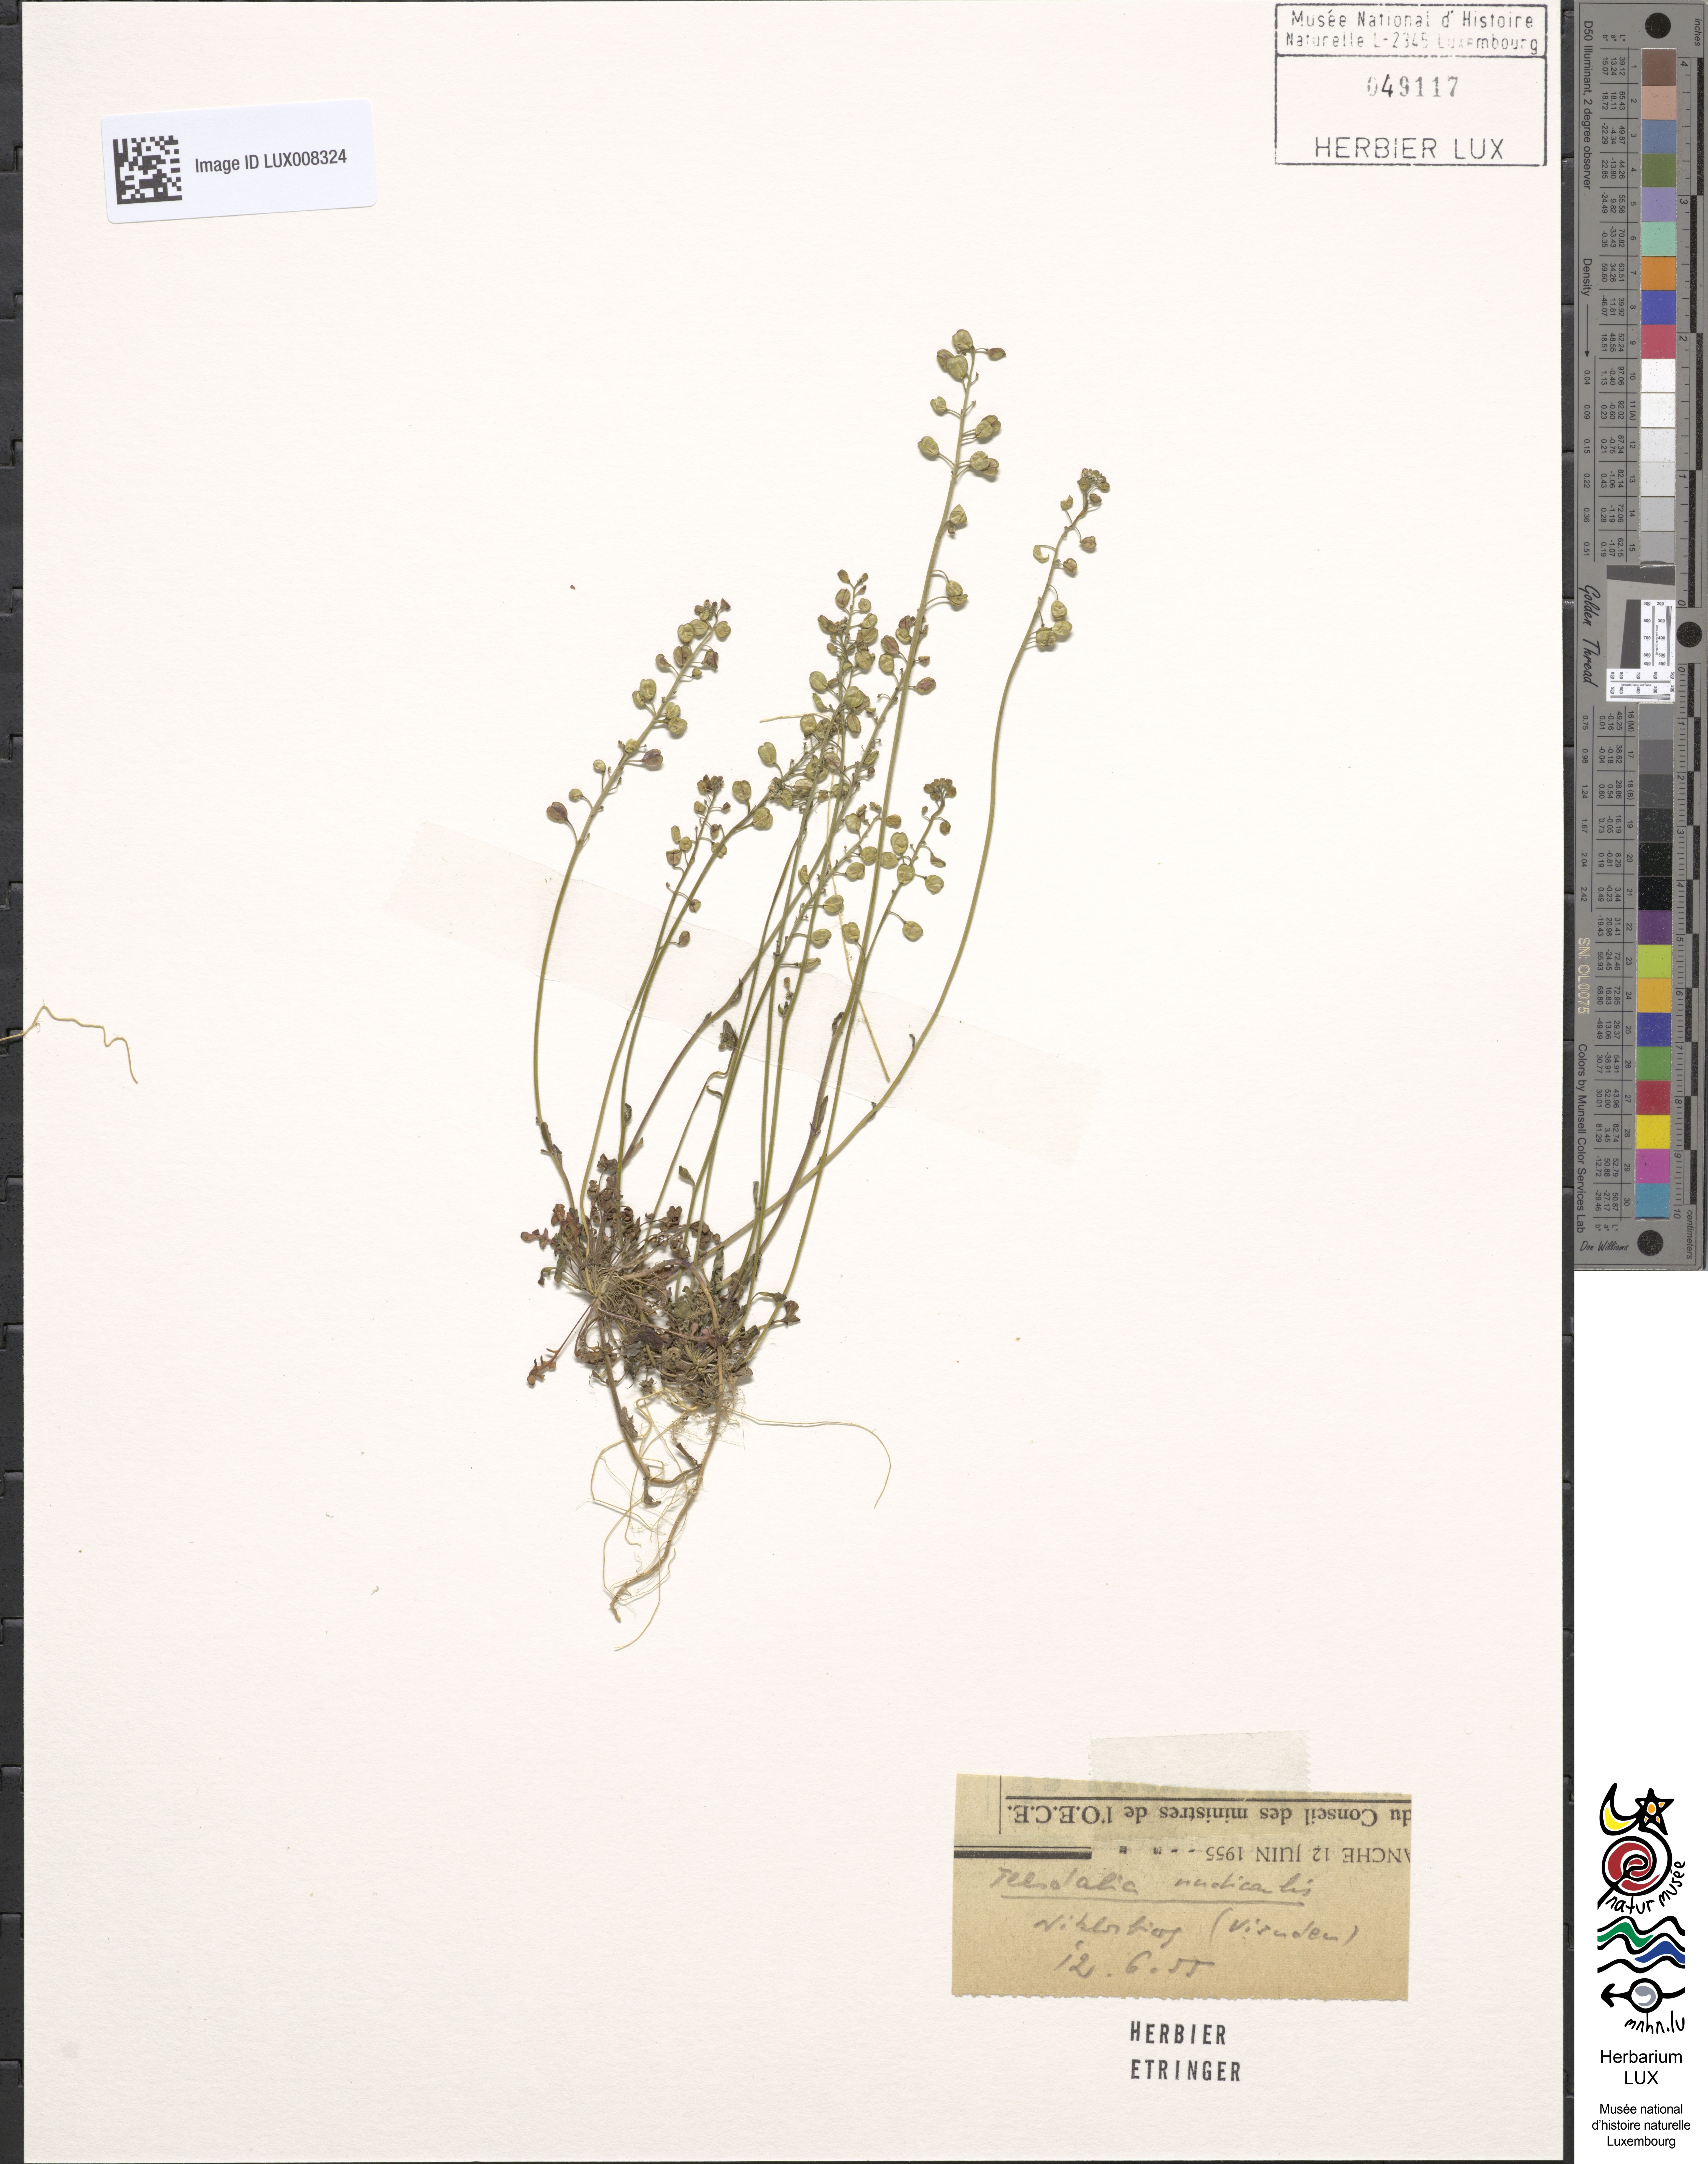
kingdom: Plantae
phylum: Tracheophyta
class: Magnoliopsida
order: Brassicales
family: Brassicaceae
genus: Teesdalia
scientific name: Teesdalia nudicaulis
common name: Shepherd's cress
